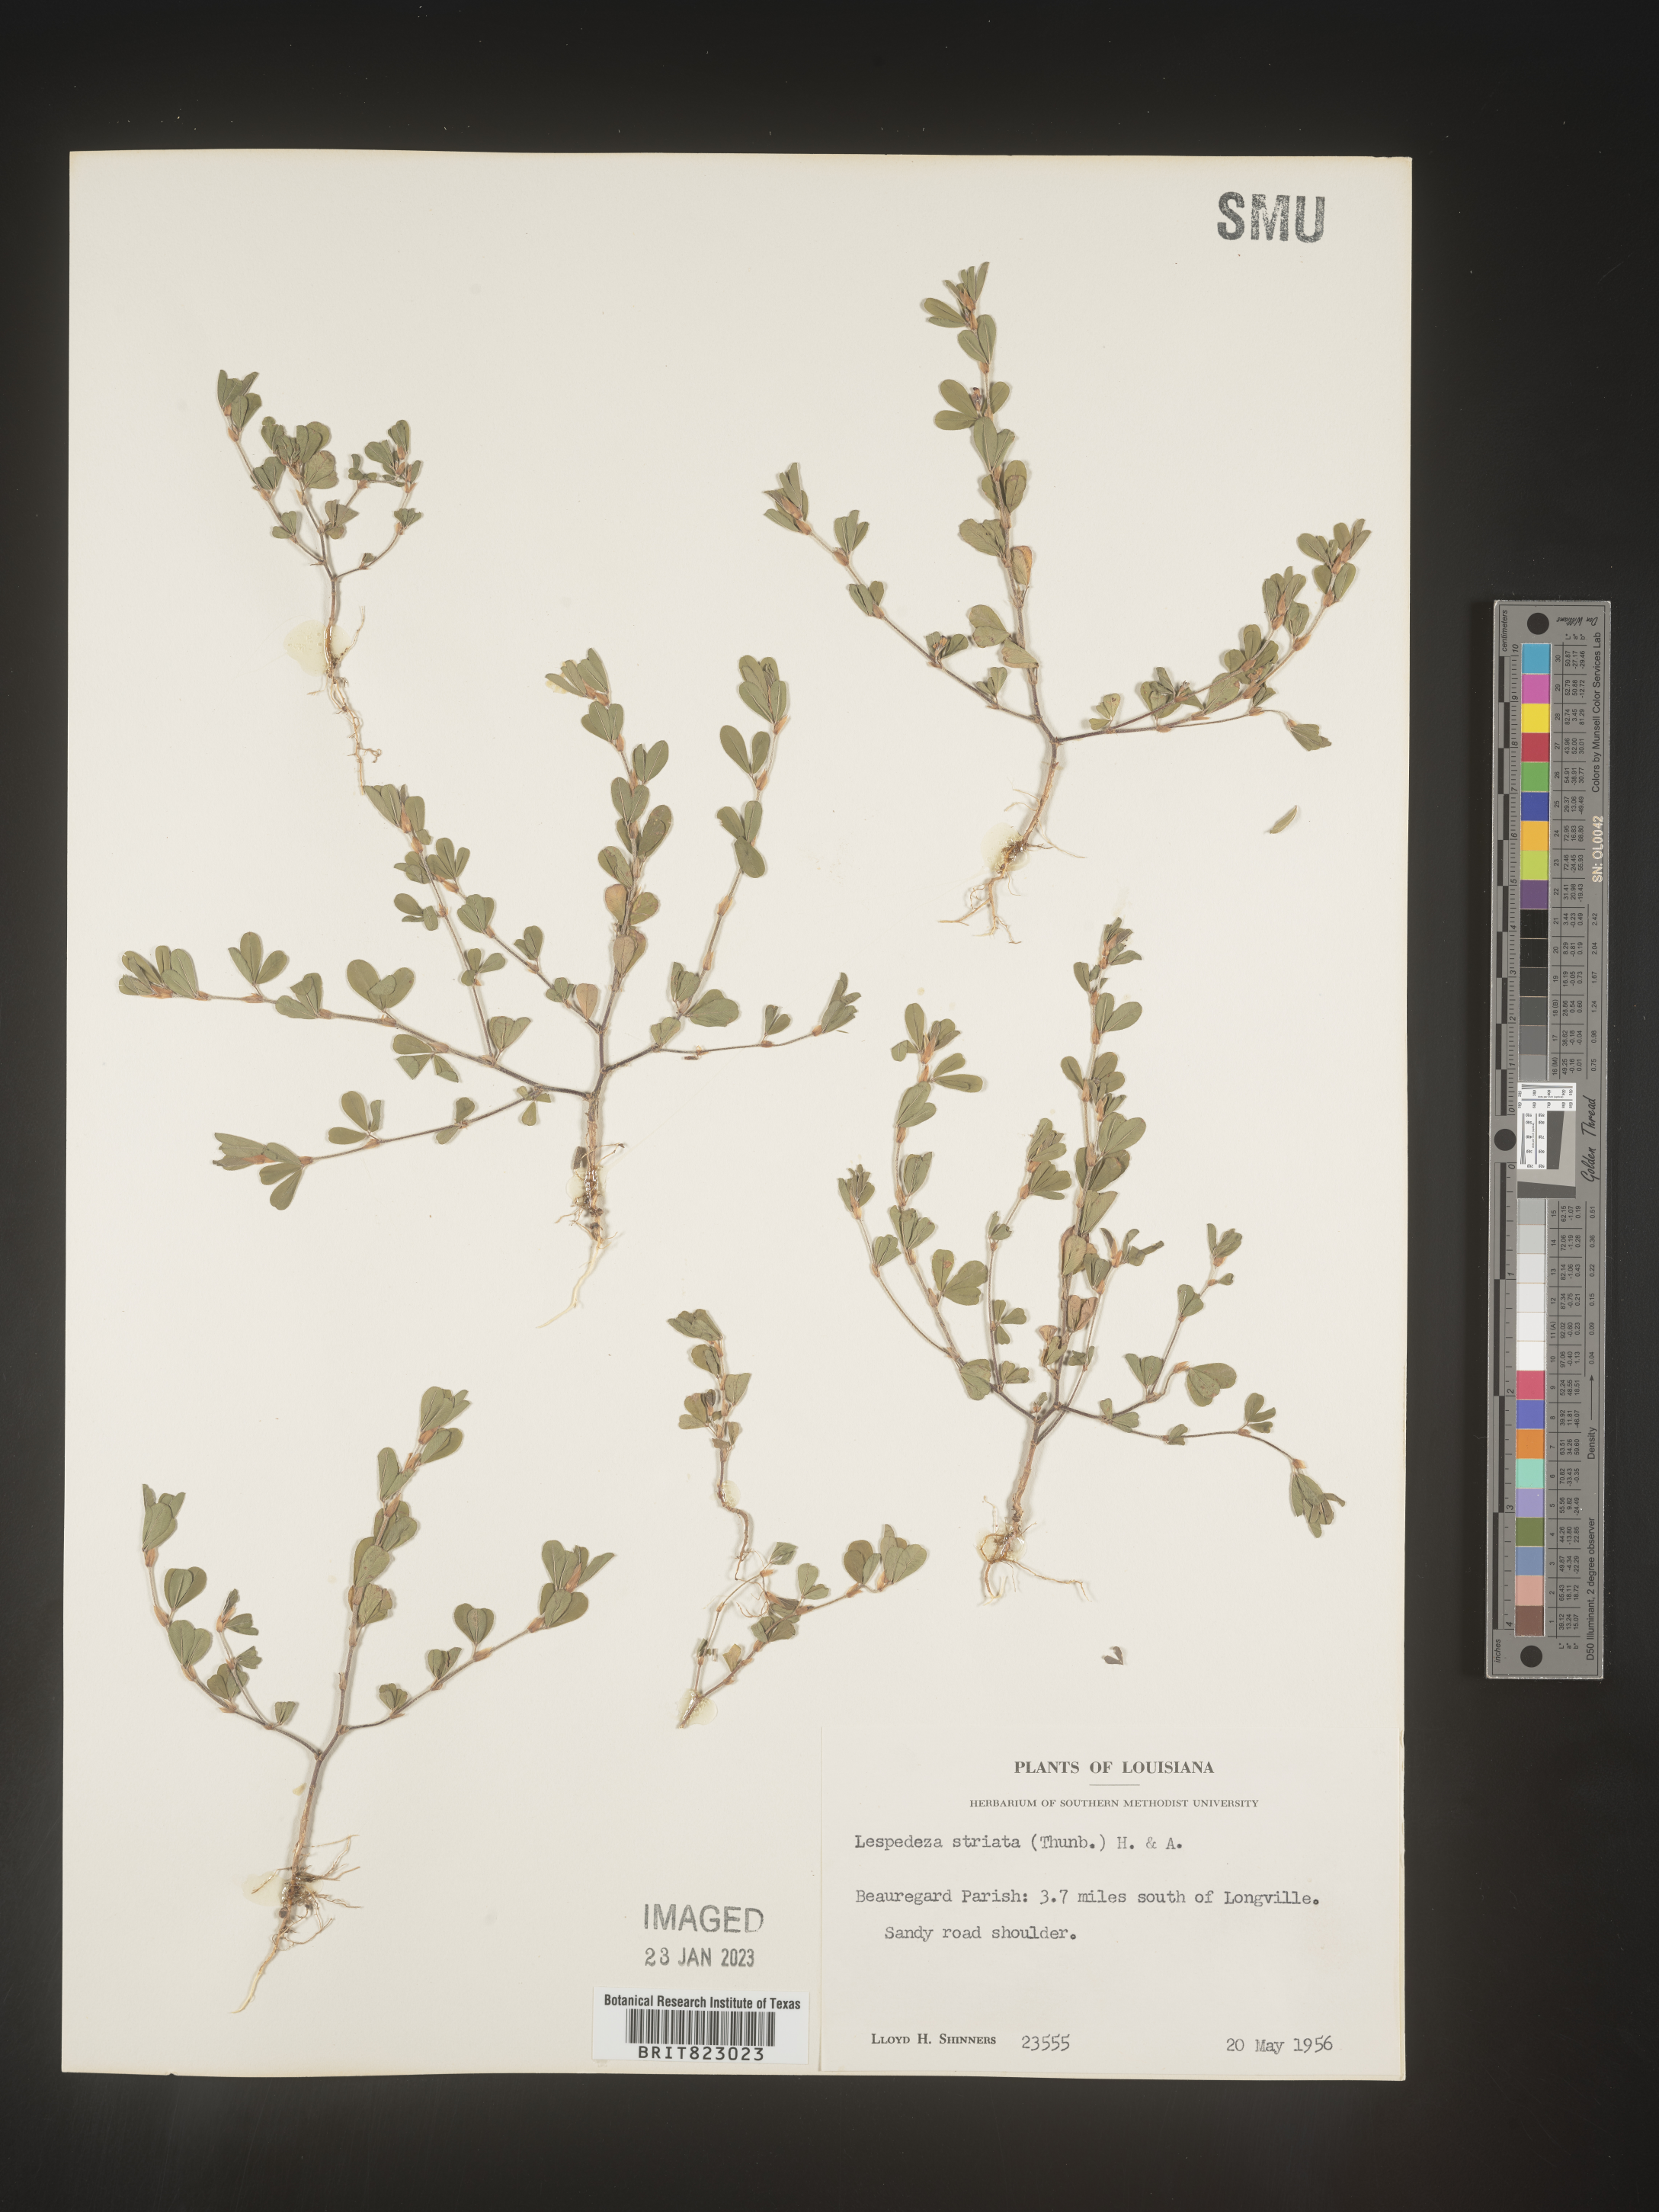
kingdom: Plantae
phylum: Tracheophyta
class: Magnoliopsida
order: Fabales
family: Fabaceae
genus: Kummerowia
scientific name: Kummerowia striata
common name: Japanese clover
